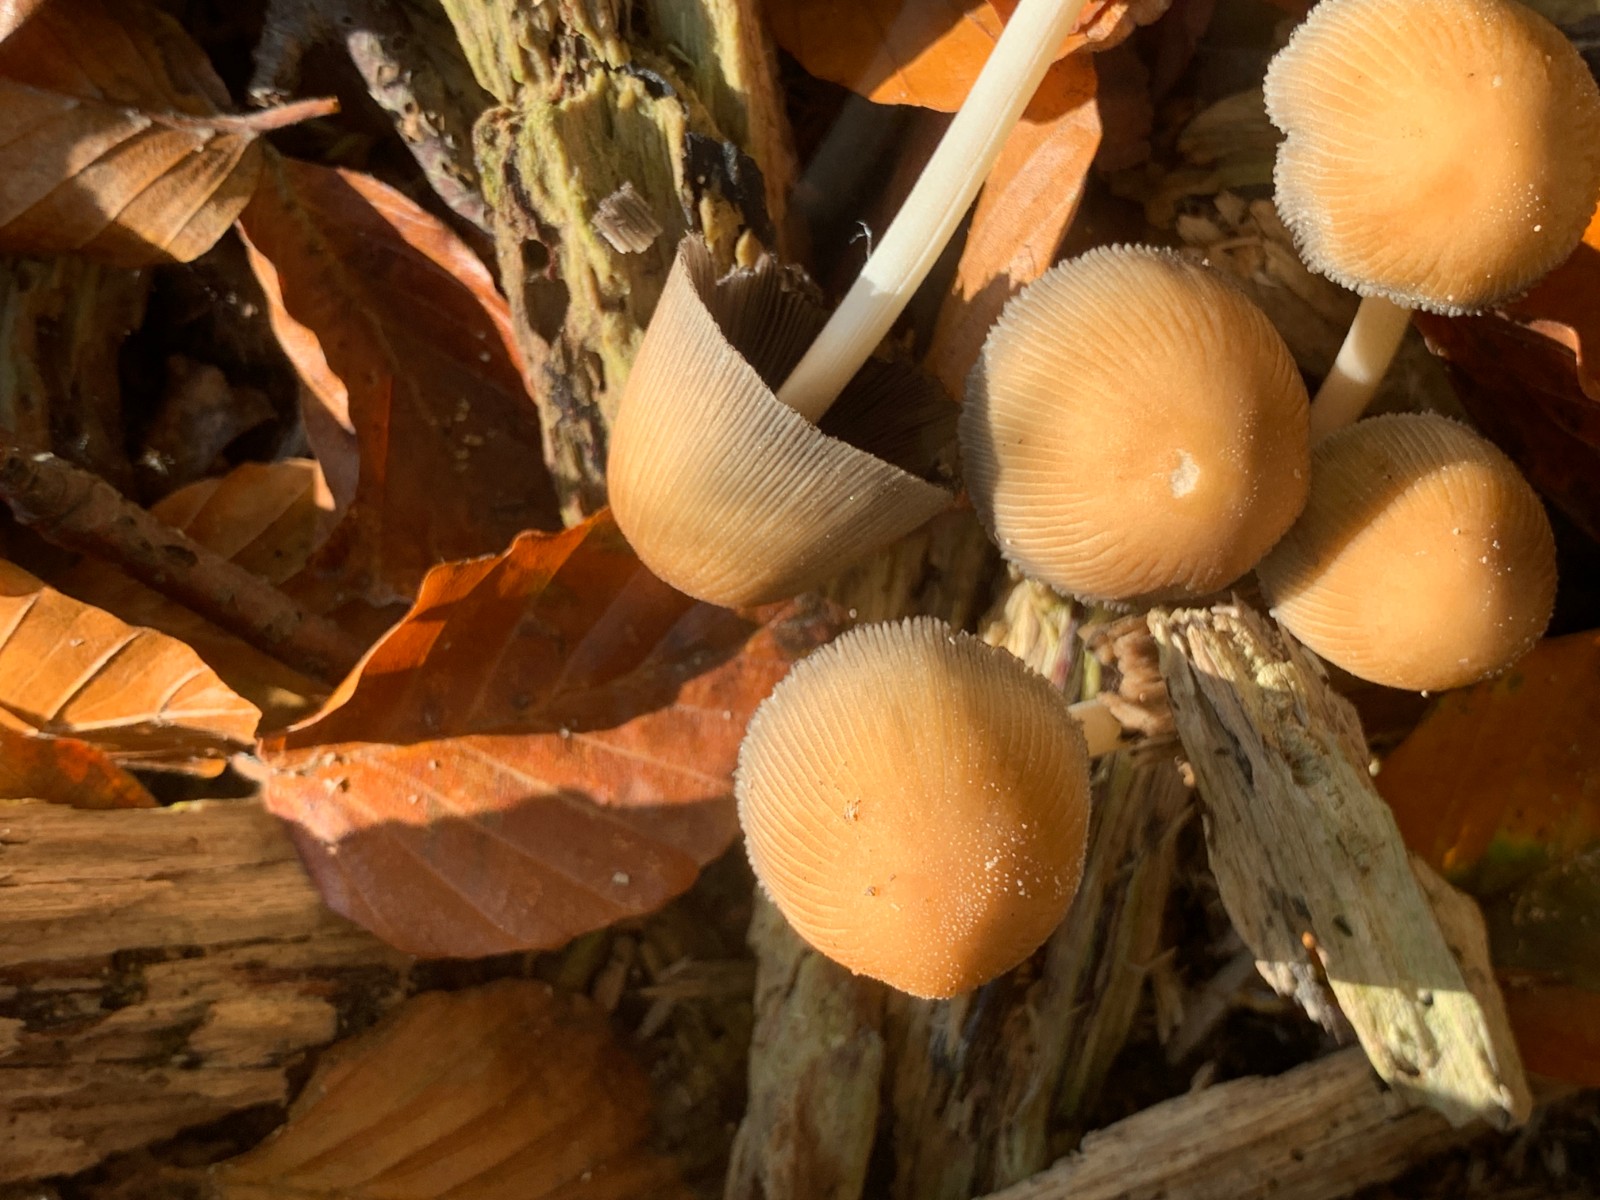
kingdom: Fungi
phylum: Basidiomycota
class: Agaricomycetes
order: Agaricales
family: Psathyrellaceae
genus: Coprinellus
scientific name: Coprinellus micaceus
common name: glimmer-blækhat
